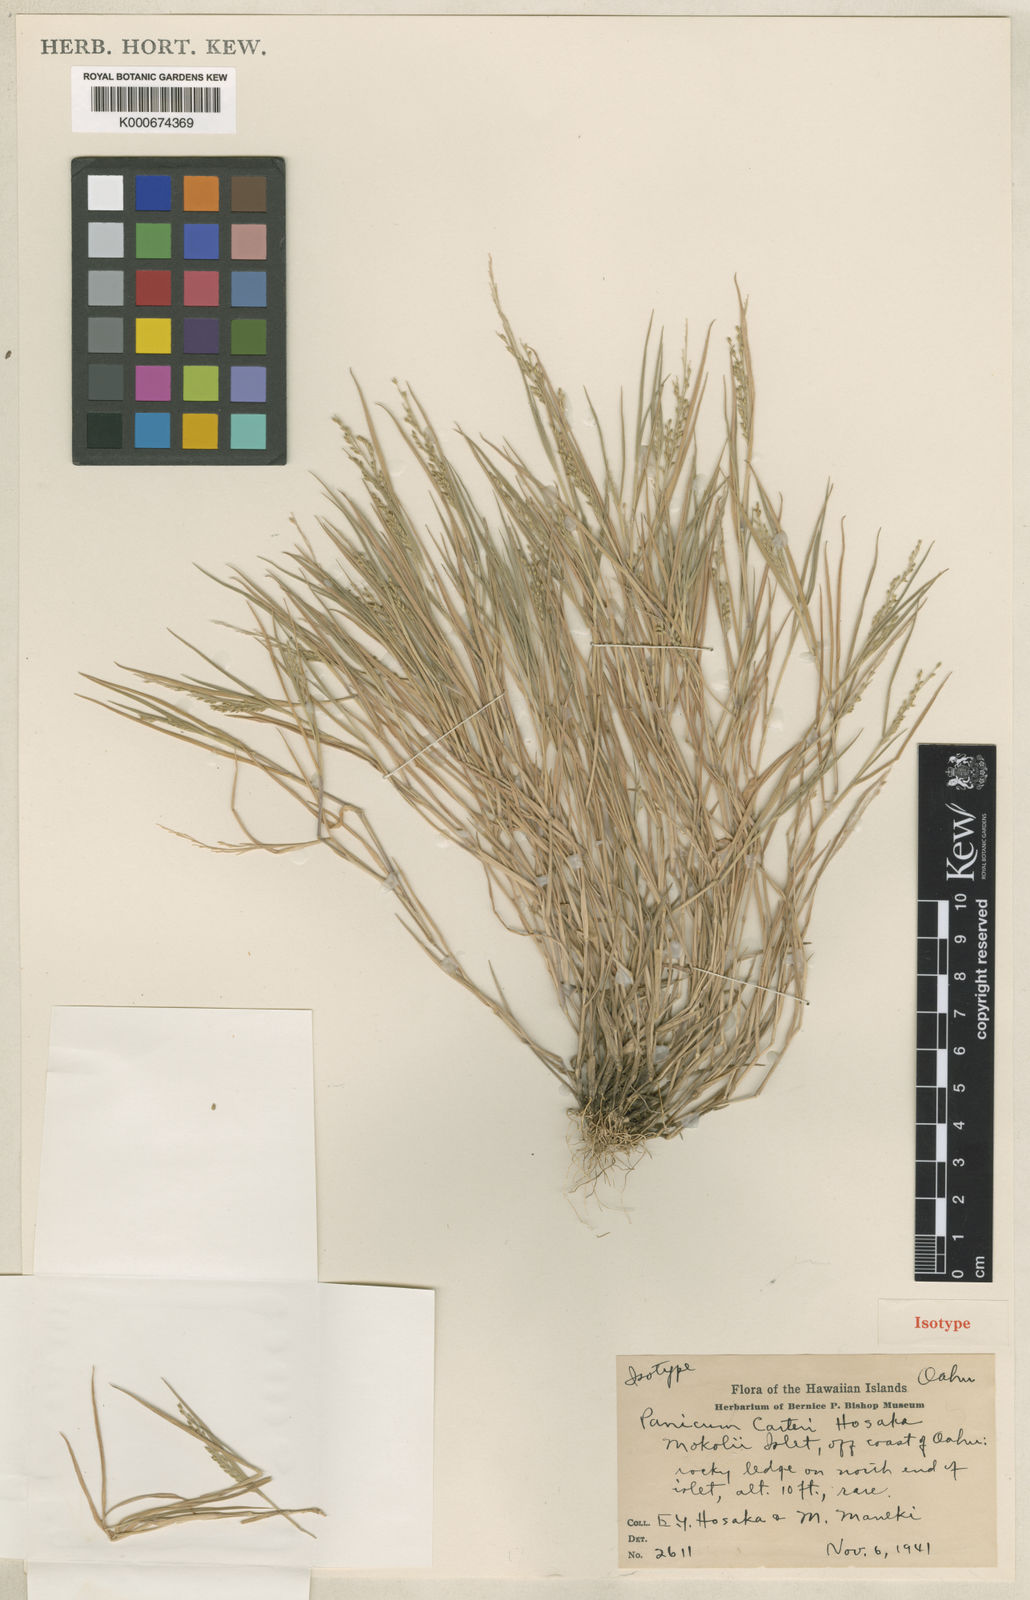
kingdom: Plantae
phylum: Tracheophyta
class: Liliopsida
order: Poales
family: Poaceae
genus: Panicum
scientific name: Panicum fauriei
